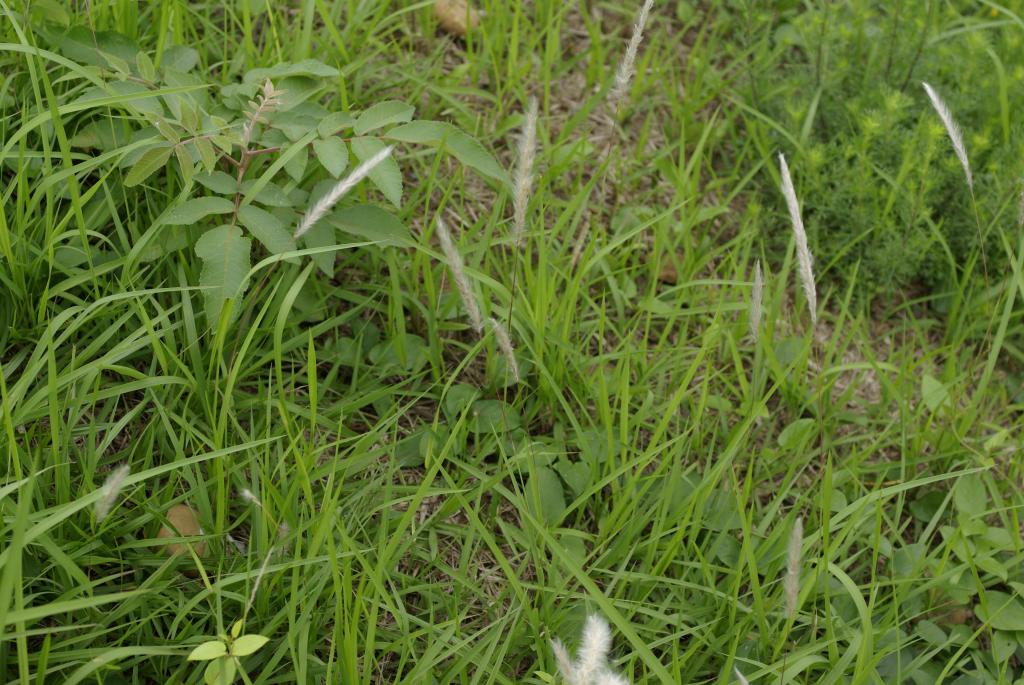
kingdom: Plantae
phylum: Tracheophyta
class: Liliopsida
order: Poales
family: Poaceae
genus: Imperata
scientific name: Imperata cylindrica
